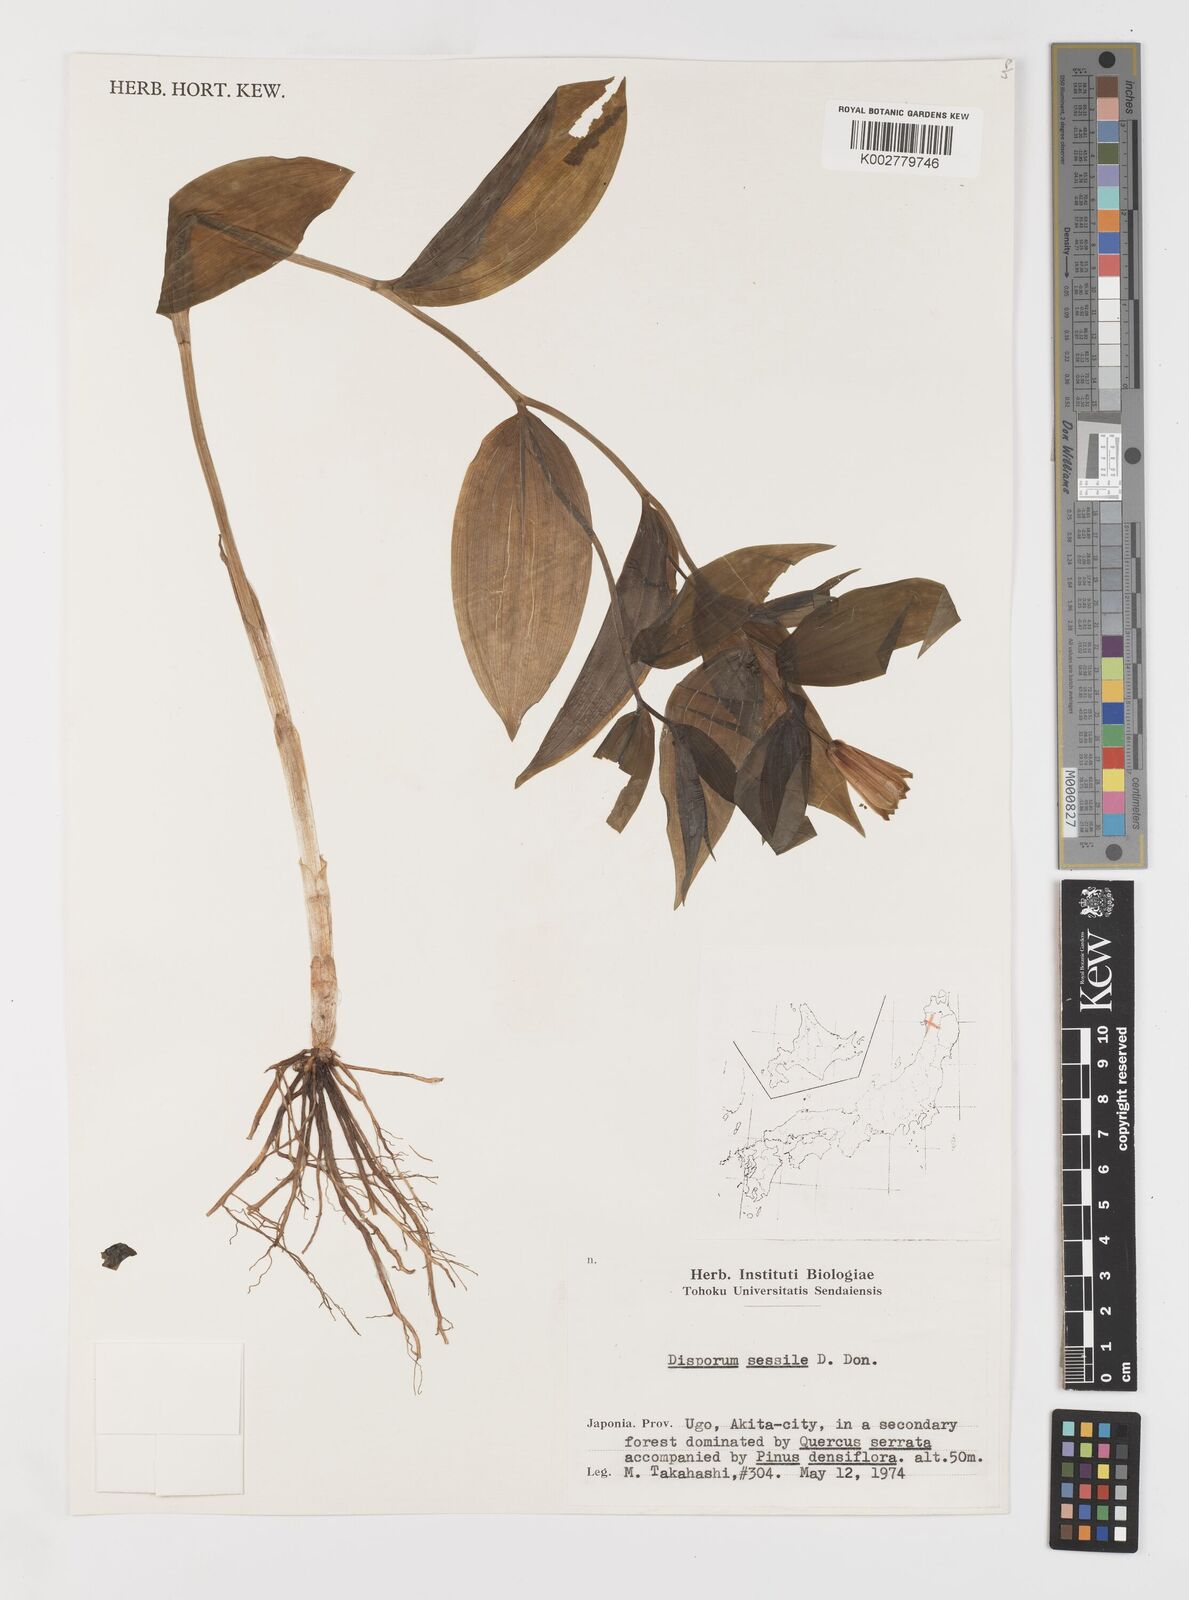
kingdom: Plantae
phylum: Tracheophyta
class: Liliopsida
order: Liliales
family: Colchicaceae
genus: Disporum
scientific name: Disporum sessile
